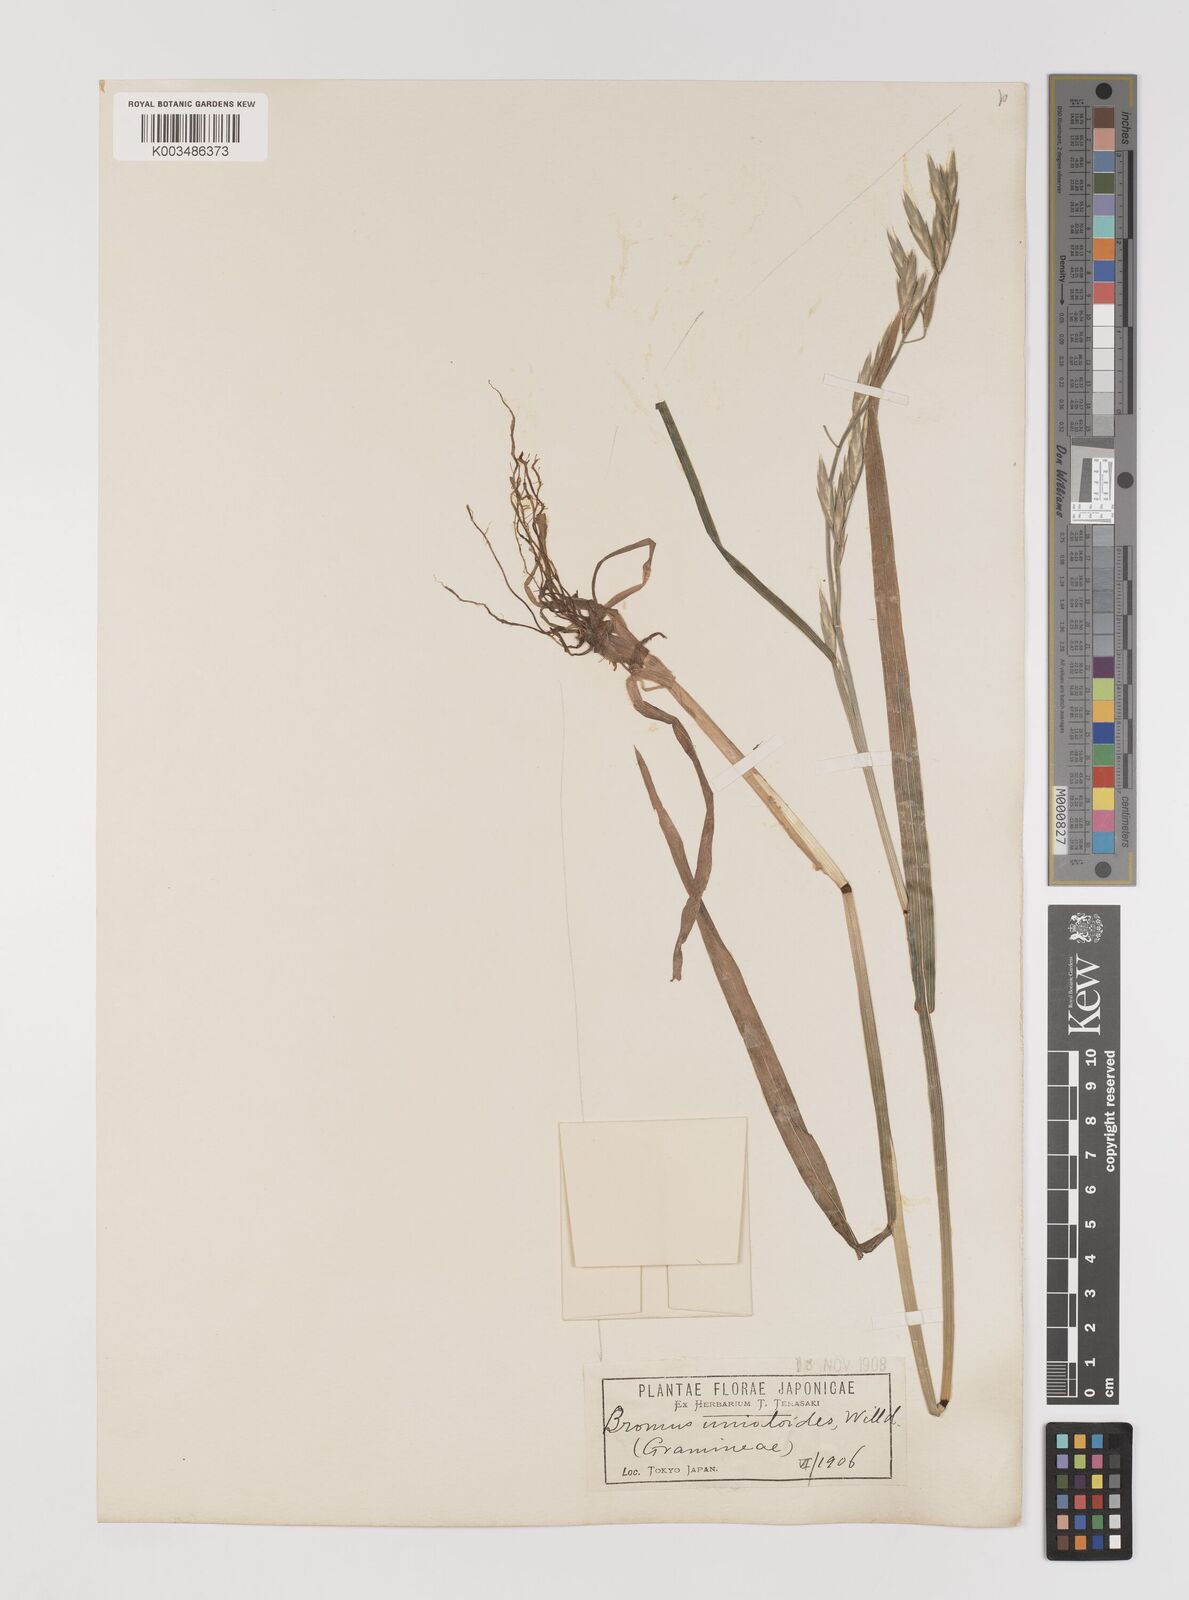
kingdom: Plantae
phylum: Tracheophyta
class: Liliopsida
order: Poales
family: Poaceae
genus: Bromus
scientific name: Bromus catharticus
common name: Rescuegrass
